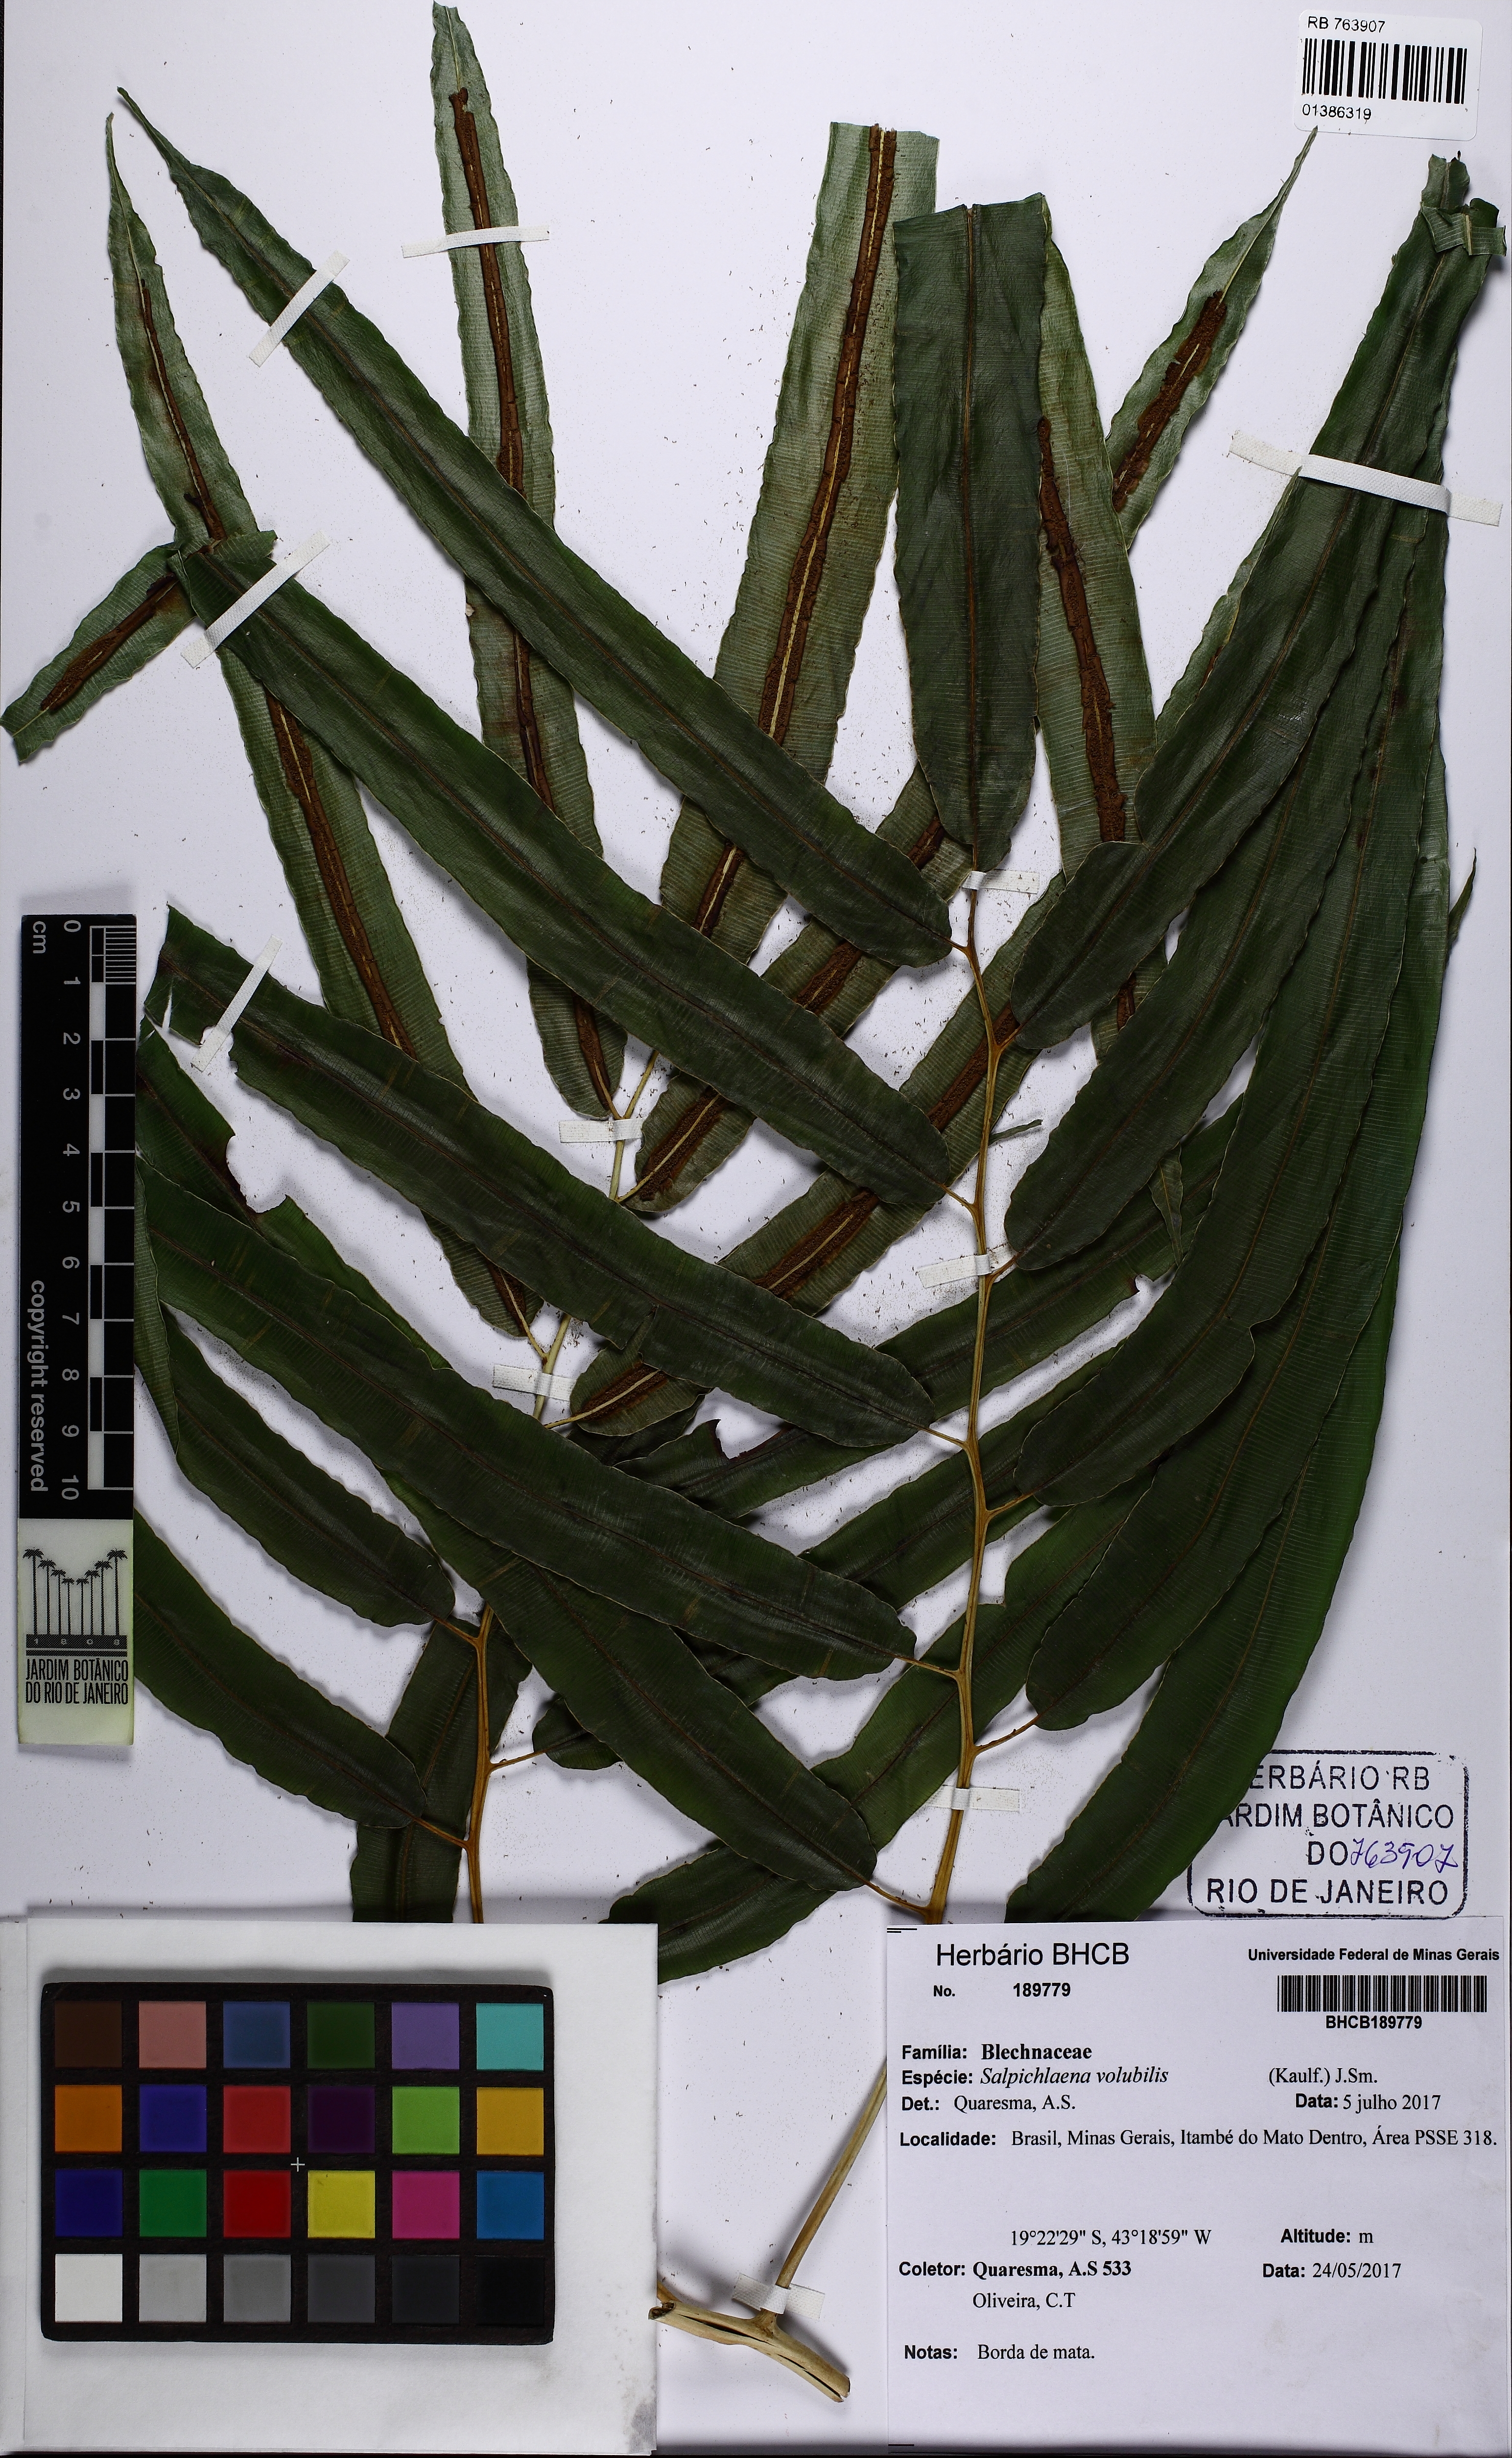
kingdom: Plantae
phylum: Tracheophyta
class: Polypodiopsida
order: Polypodiales
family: Blechnaceae
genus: Salpichlaena
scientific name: Salpichlaena volubilis
